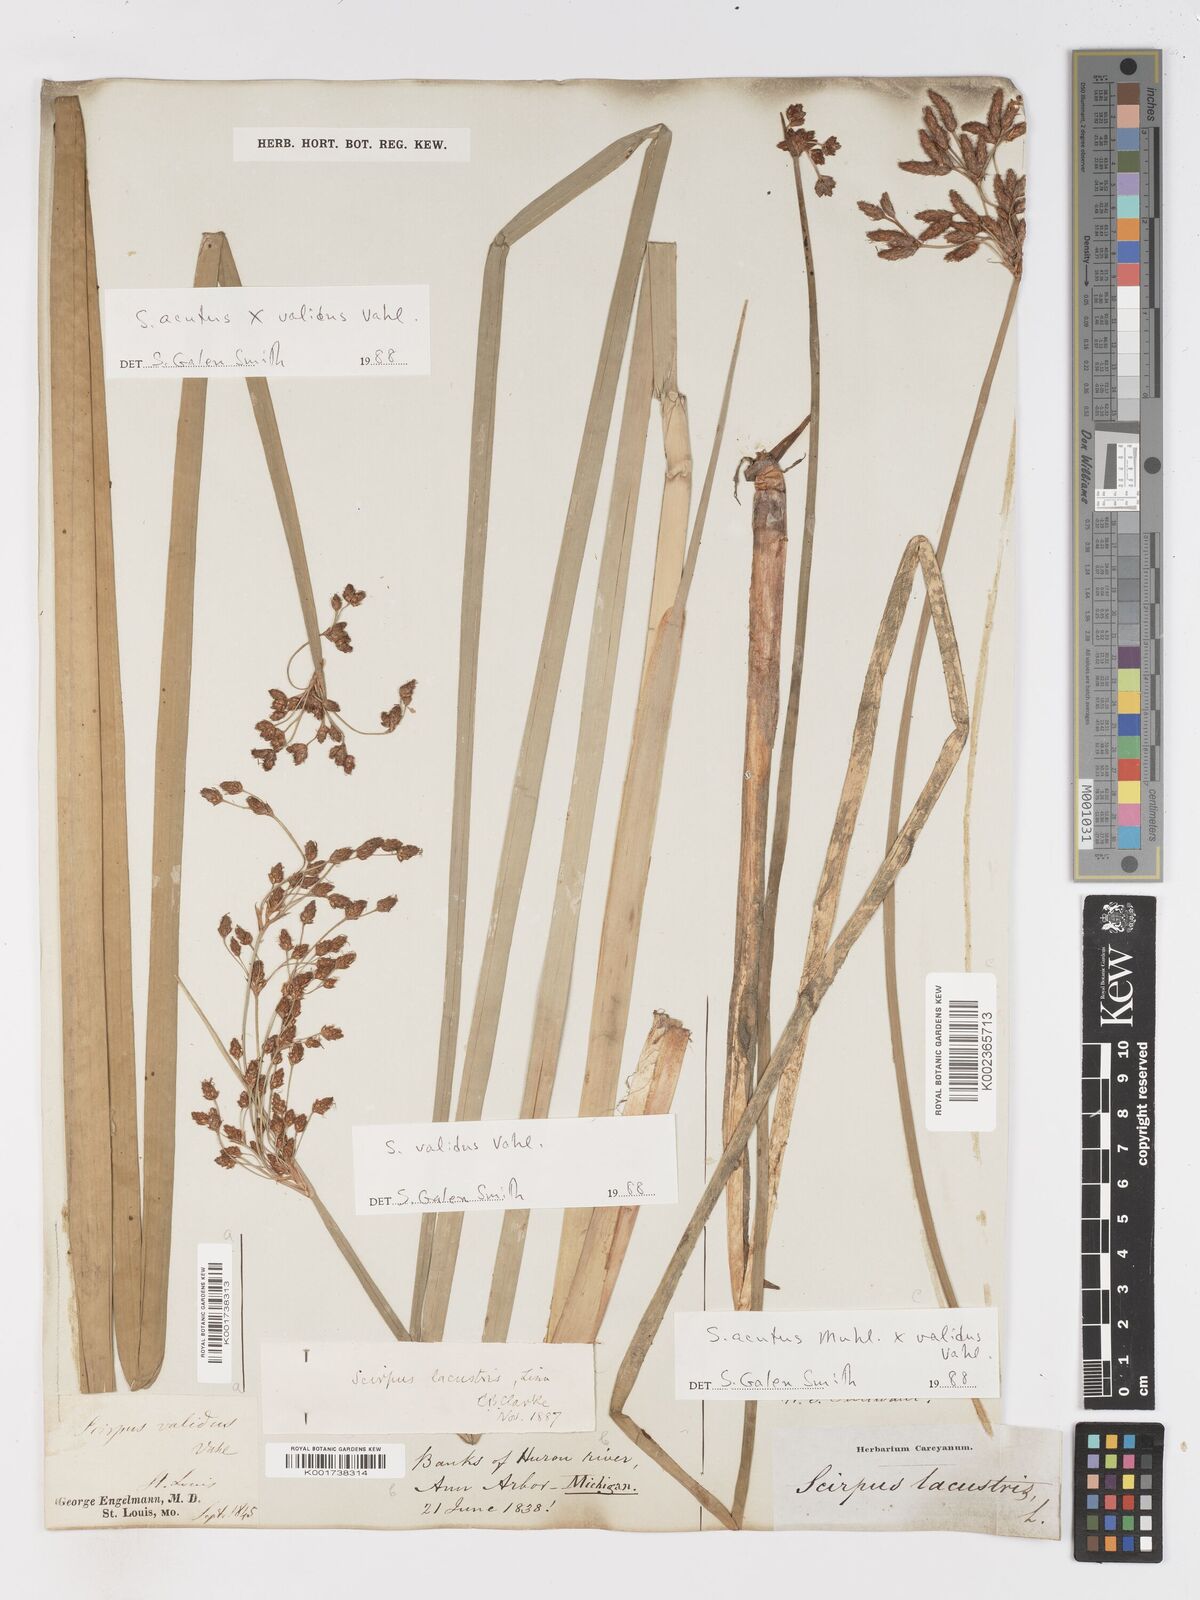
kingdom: Plantae
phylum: Tracheophyta
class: Liliopsida
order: Poales
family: Cyperaceae
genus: Schoenoplectus
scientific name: Schoenoplectus acutus
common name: Hardstem bulrush
